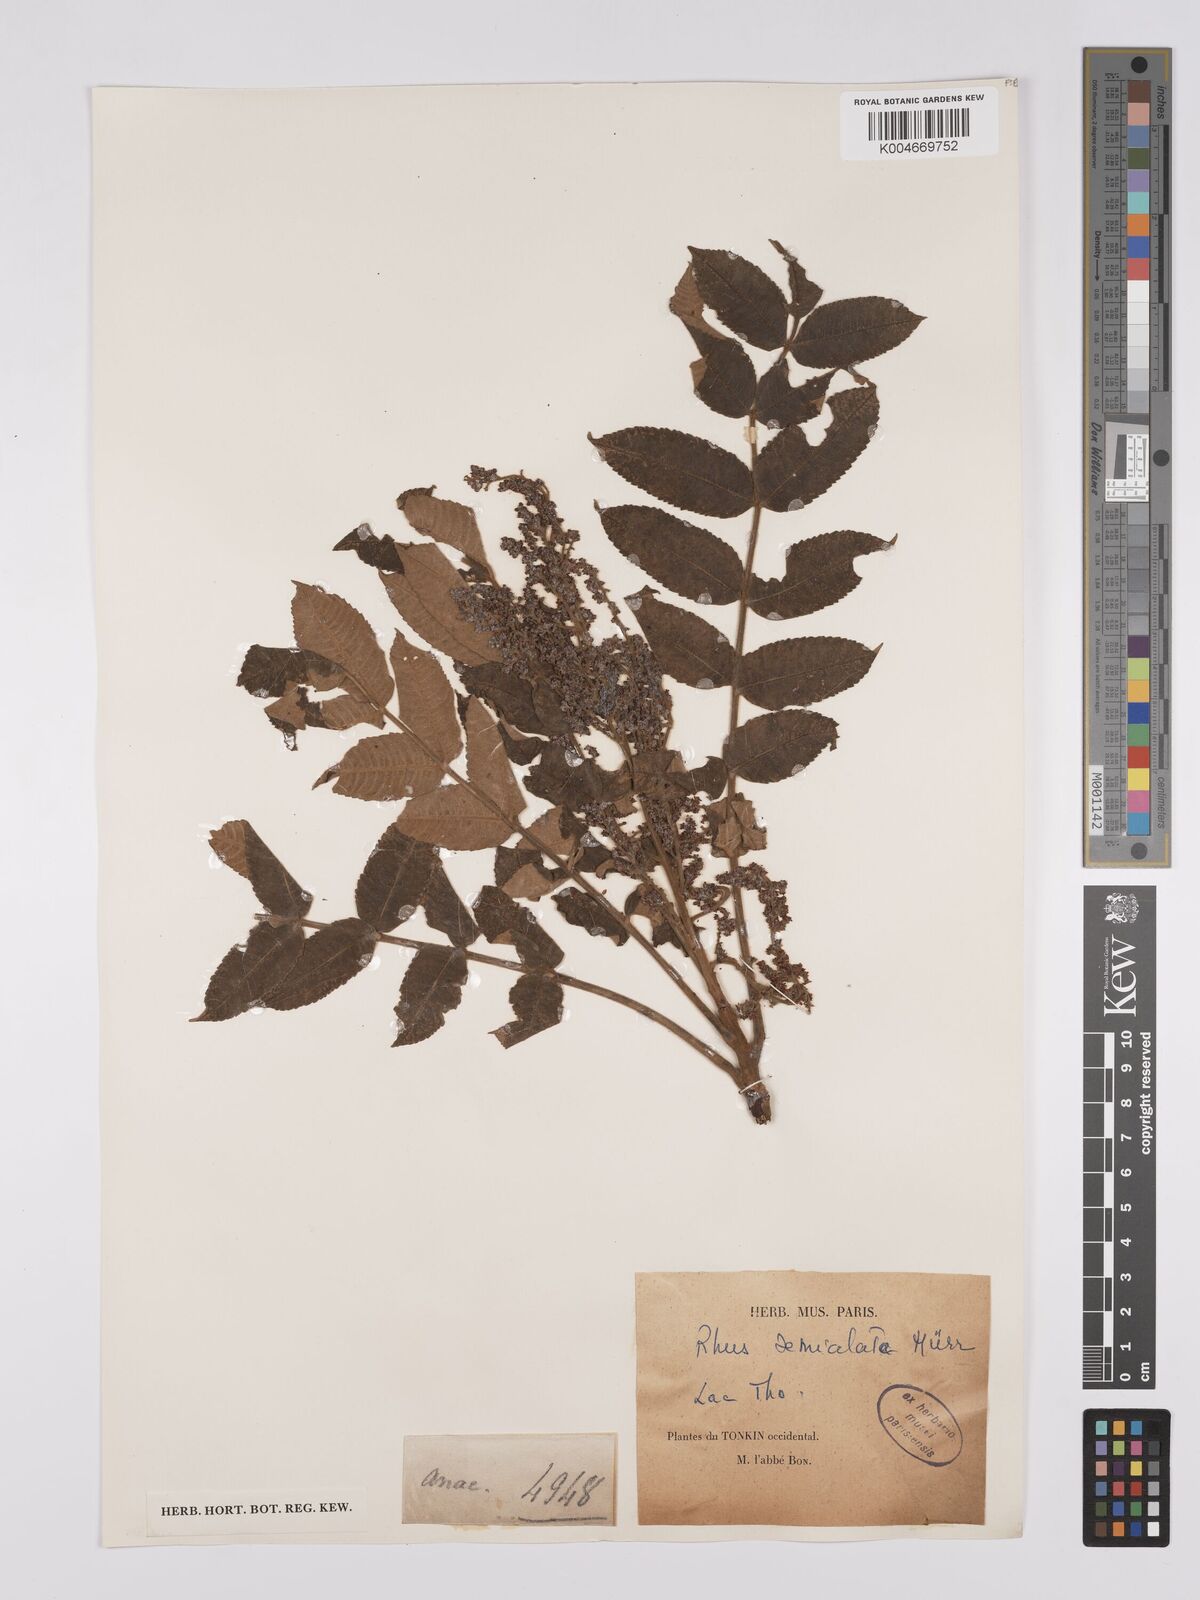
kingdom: Plantae
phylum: Tracheophyta
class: Magnoliopsida
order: Sapindales
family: Anacardiaceae
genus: Rhus
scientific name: Rhus chinensis
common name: Chinese gall
